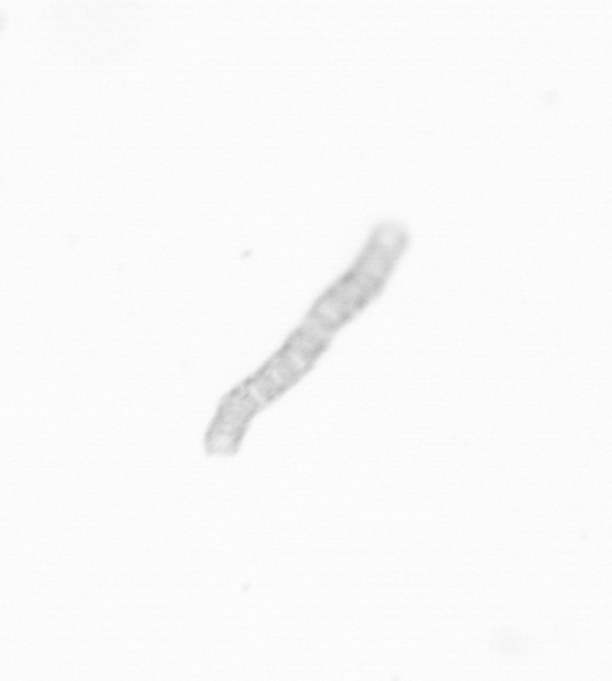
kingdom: Chromista
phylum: Ochrophyta
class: Bacillariophyceae
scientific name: Bacillariophyceae
